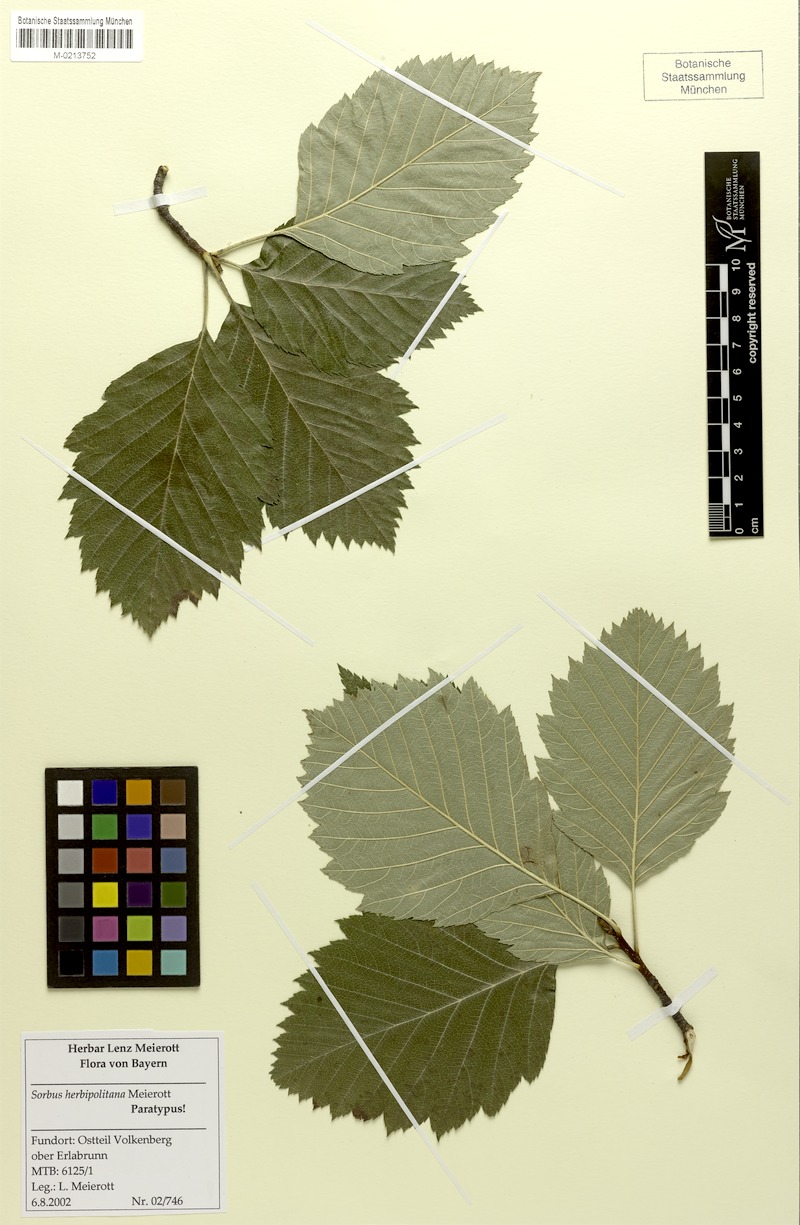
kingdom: Plantae
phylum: Tracheophyta
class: Magnoliopsida
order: Rosales
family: Rosaceae
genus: Karpatiosorbus
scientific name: Karpatiosorbus herbipolitana
